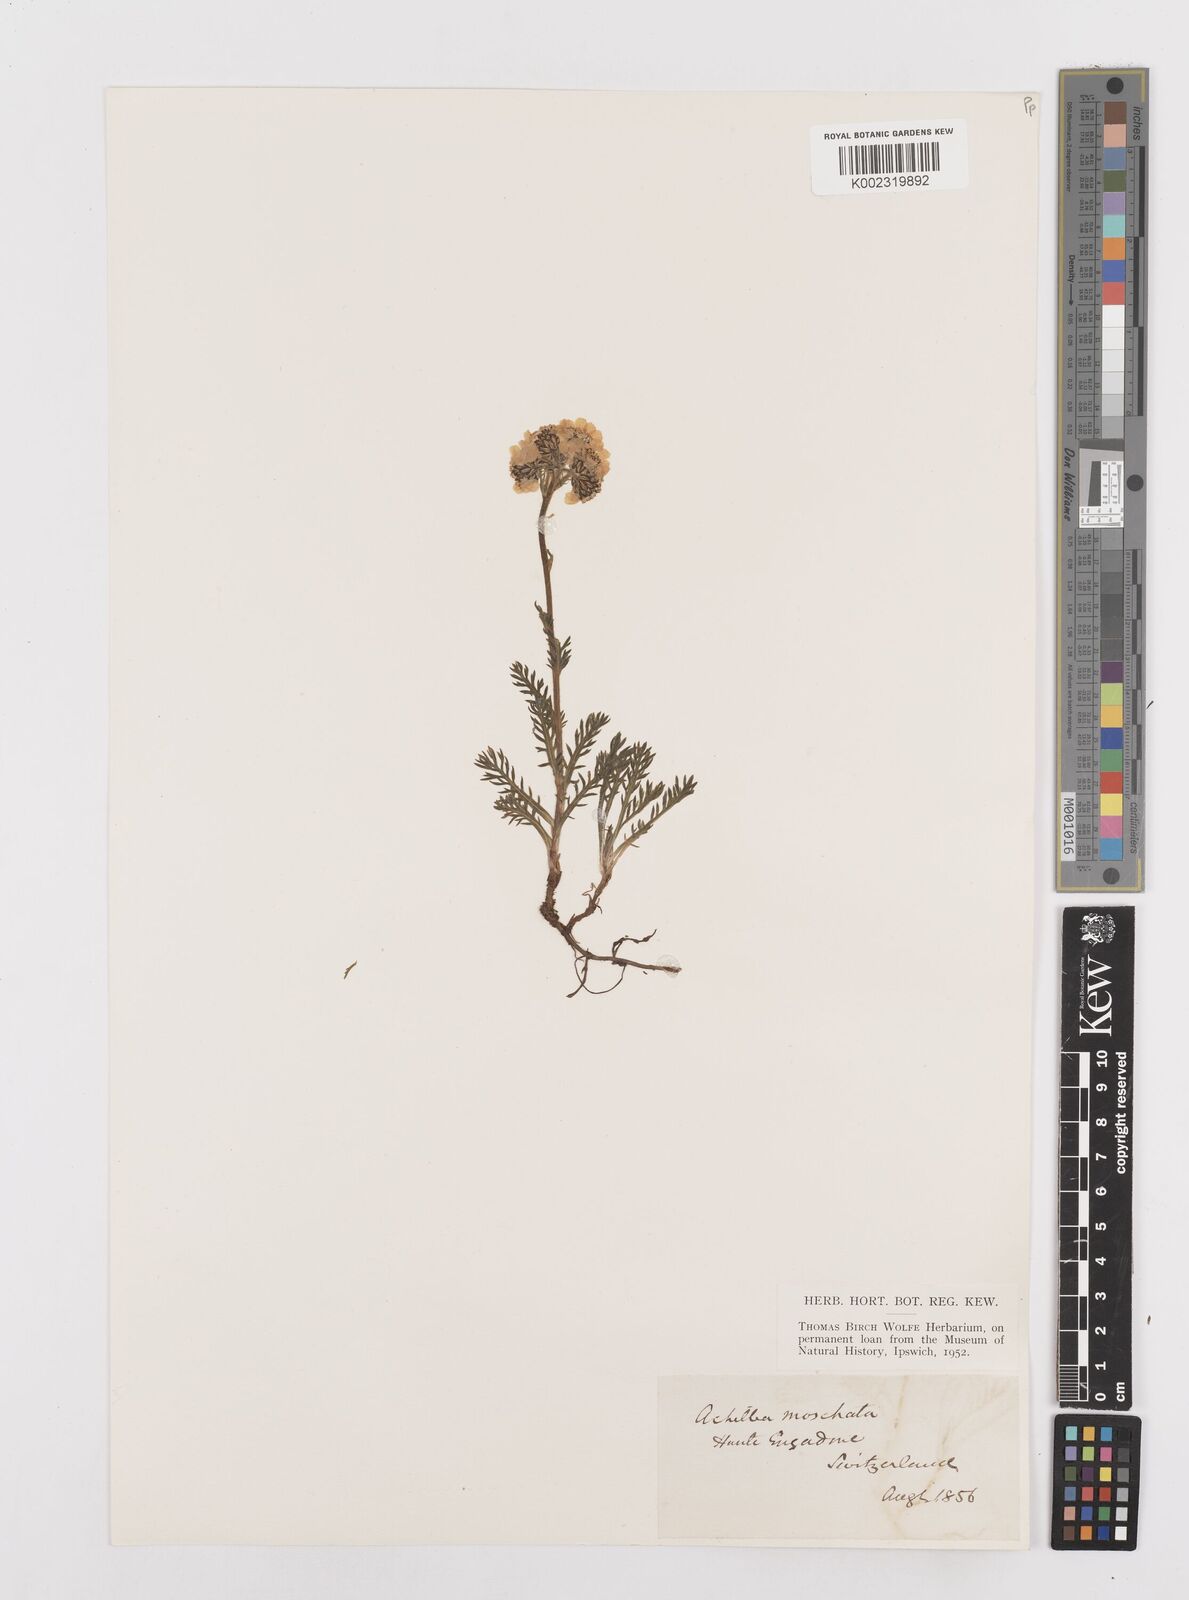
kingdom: Plantae
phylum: Tracheophyta
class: Magnoliopsida
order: Asterales
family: Asteraceae
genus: Achillea
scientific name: Achillea erba-rotta
